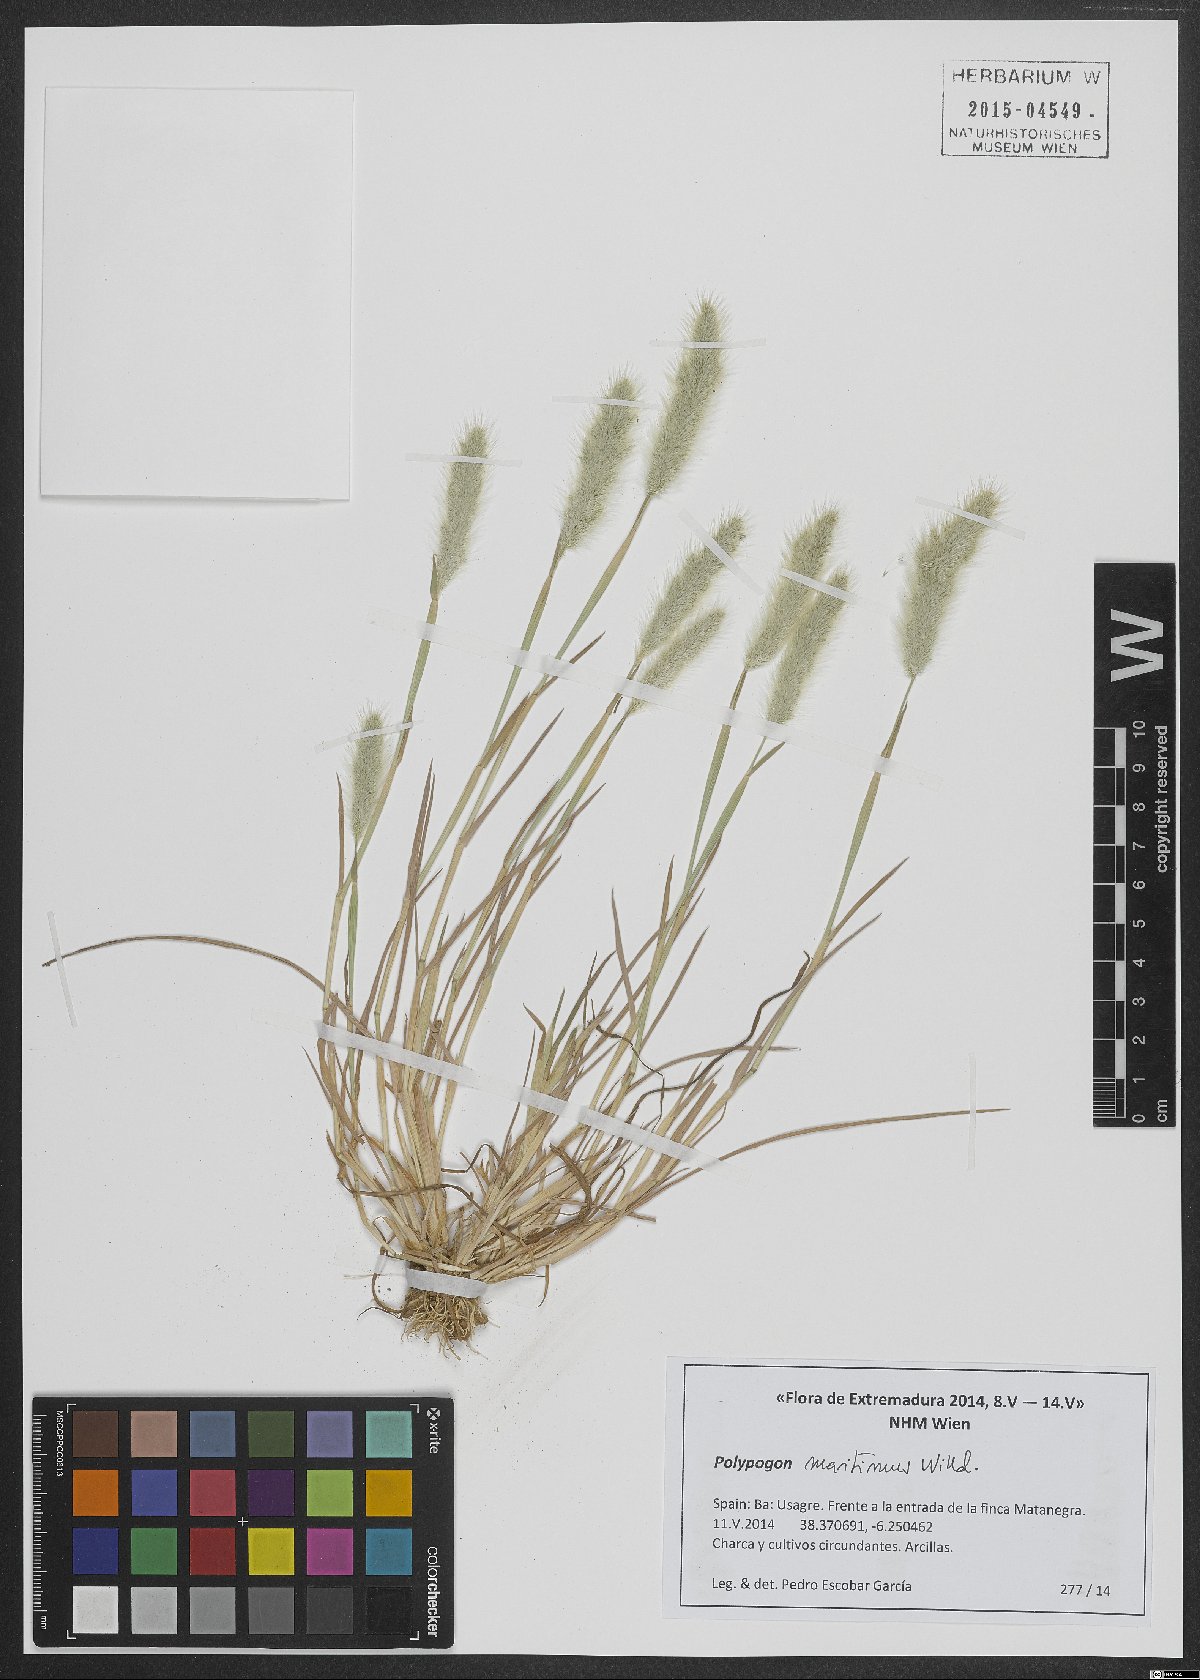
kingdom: Plantae
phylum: Tracheophyta
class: Liliopsida
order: Poales
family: Poaceae
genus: Polypogon
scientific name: Polypogon maritimus
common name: Mediterranean rabbitsfoot grass
